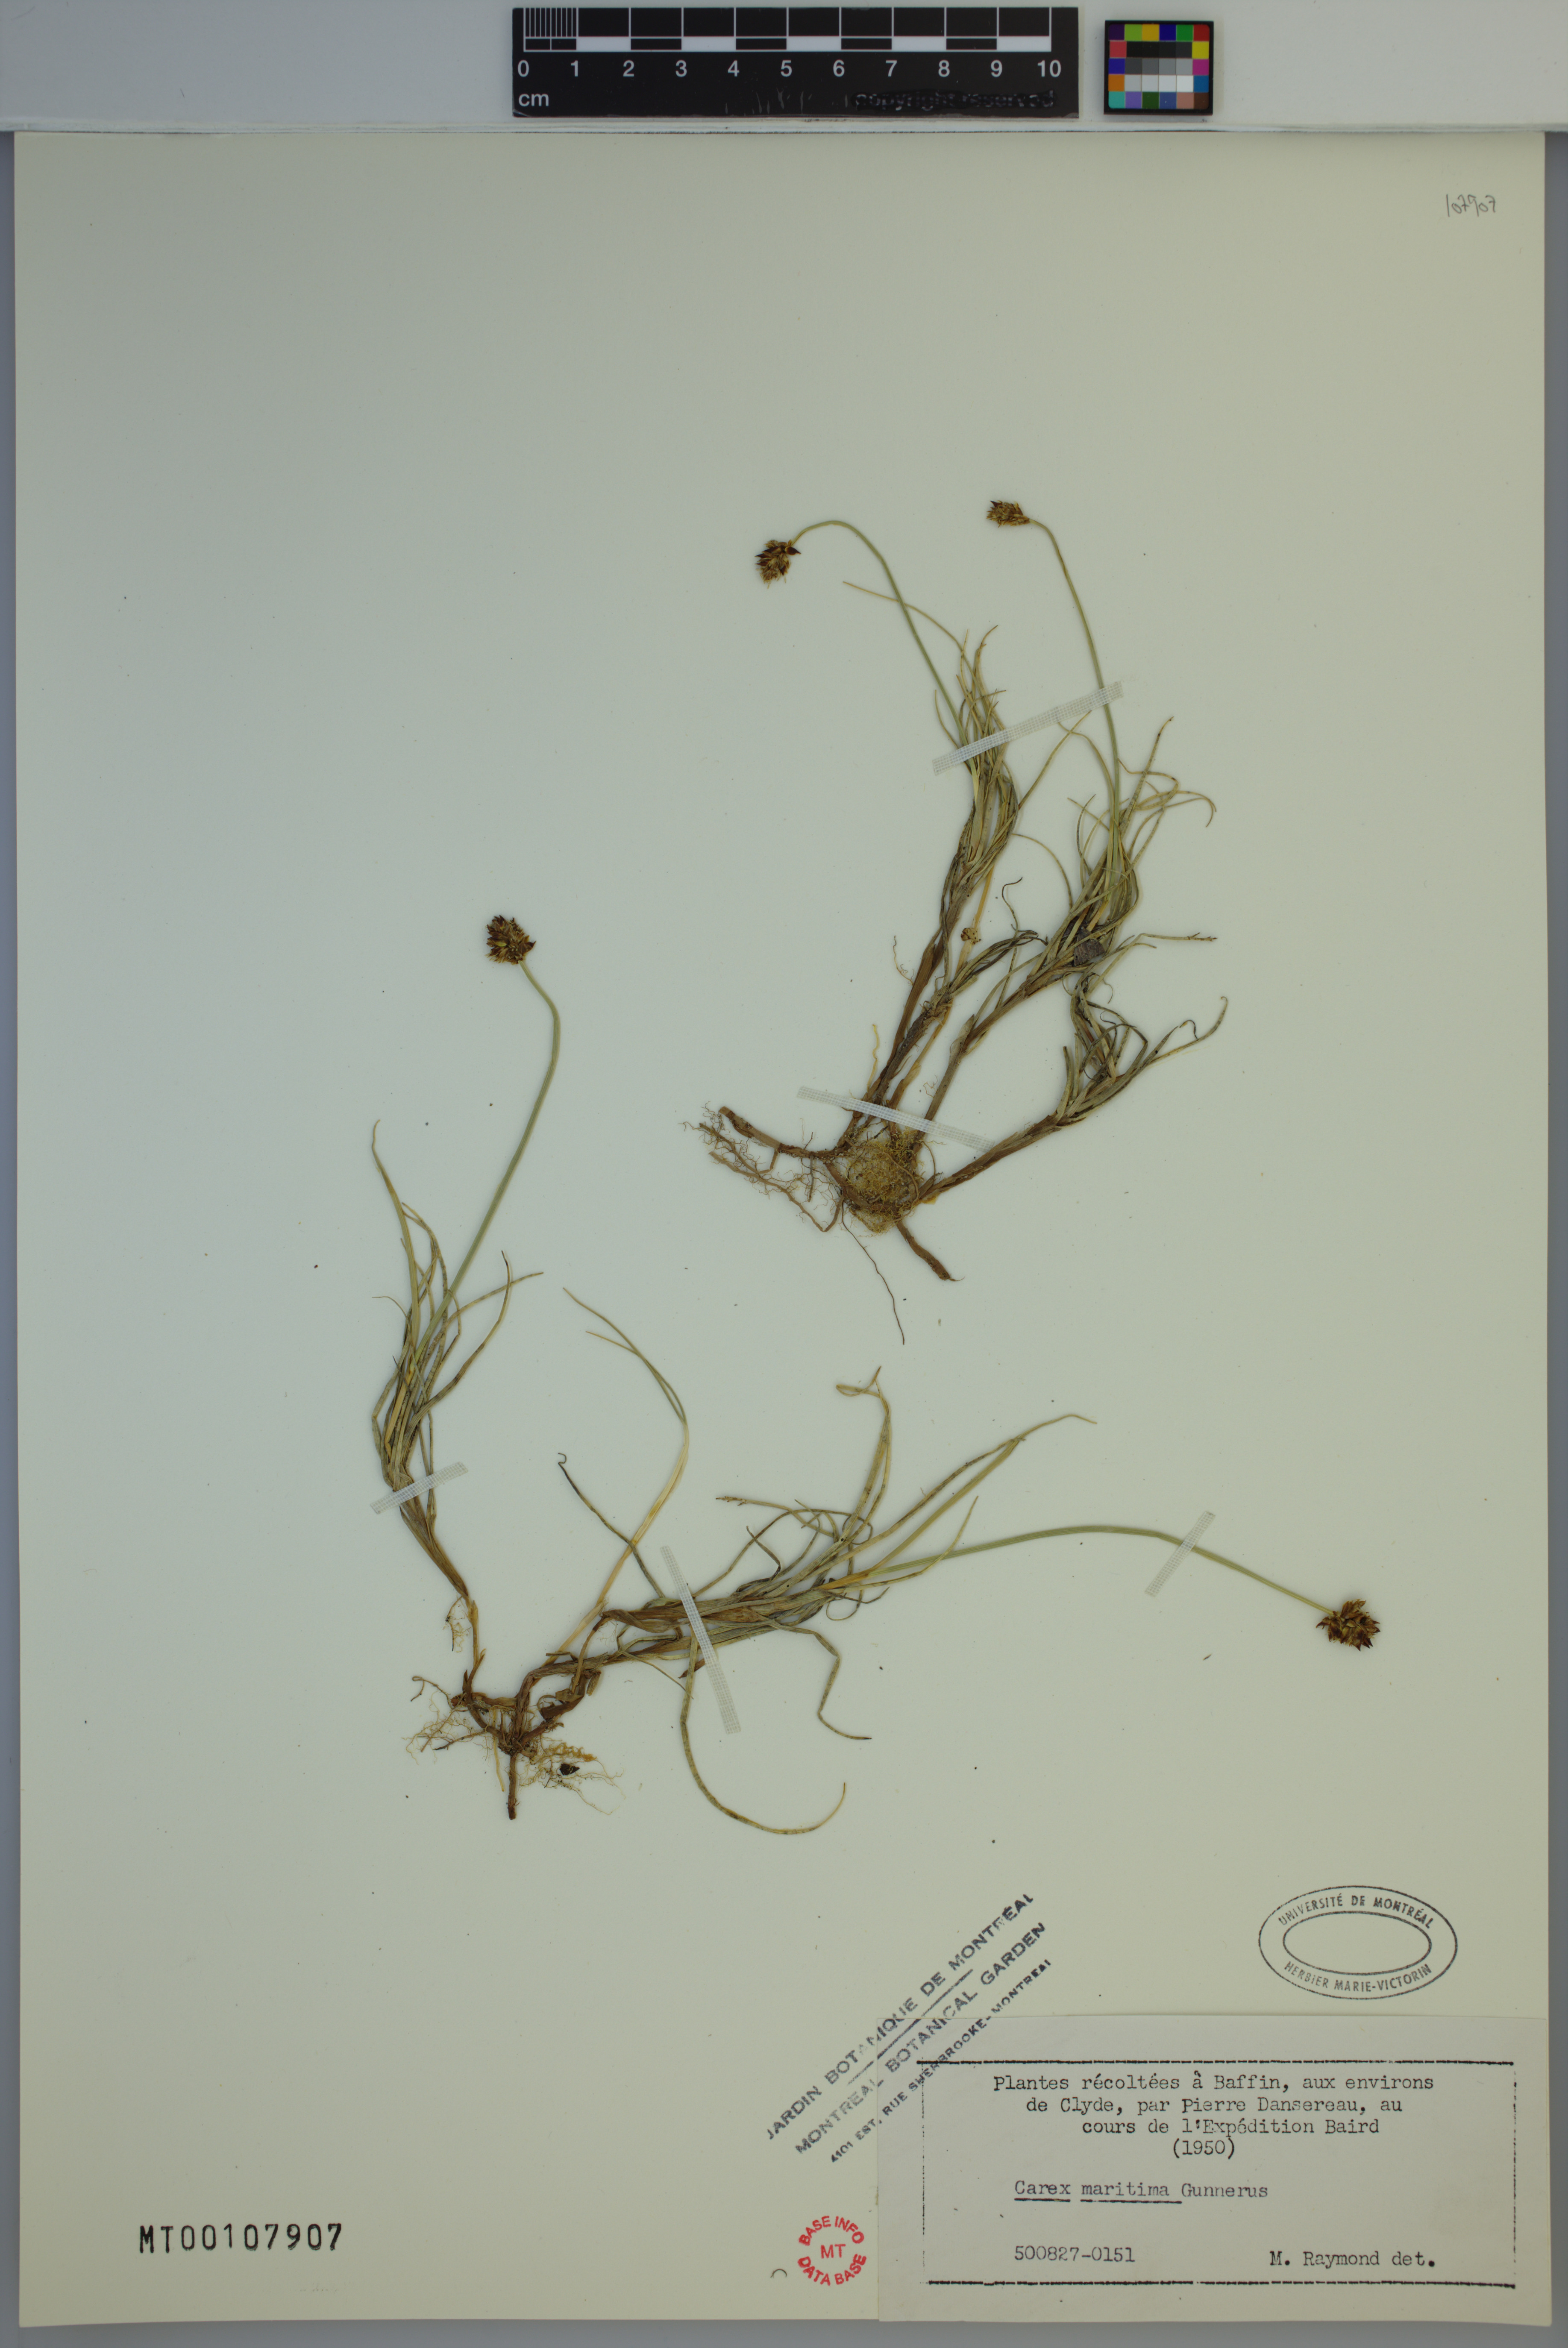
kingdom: Plantae
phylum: Tracheophyta
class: Liliopsida
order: Poales
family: Cyperaceae
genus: Carex
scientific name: Carex maritima
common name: Curved sedge
